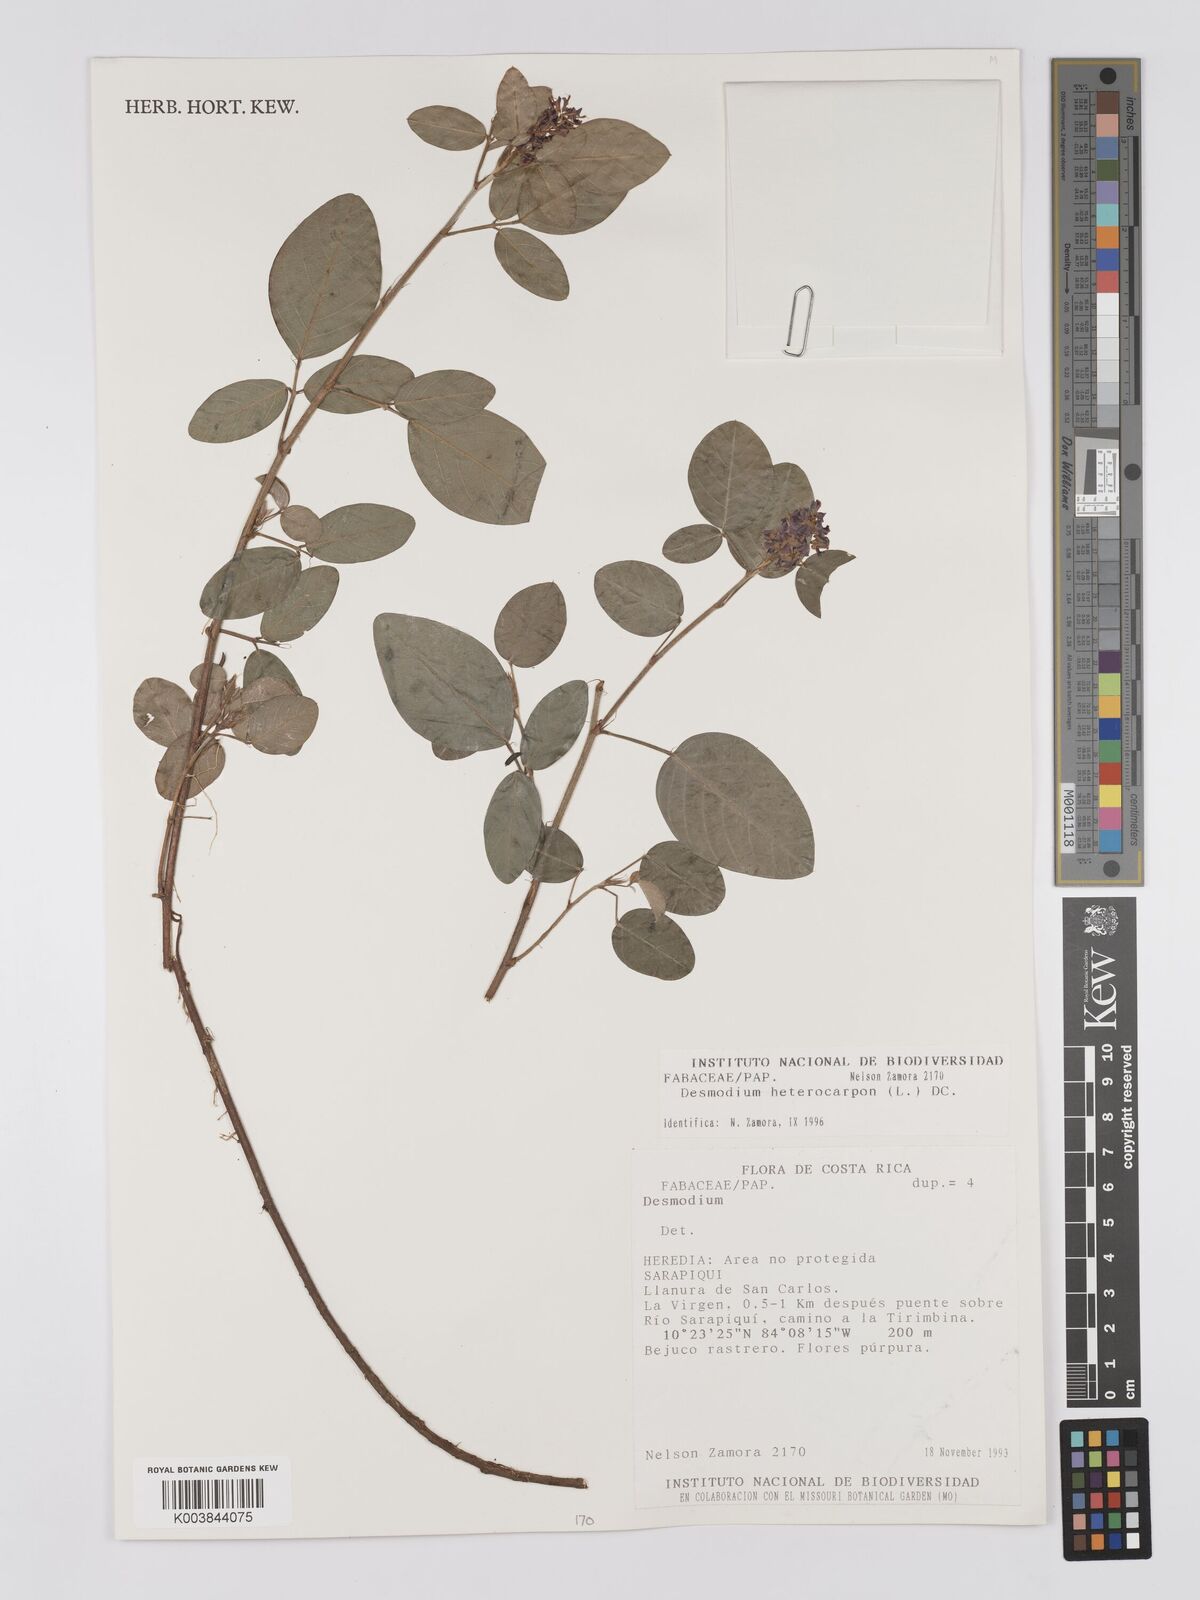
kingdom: Plantae
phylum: Tracheophyta
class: Magnoliopsida
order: Fabales
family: Fabaceae
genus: Grona
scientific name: Grona heterocarpos
